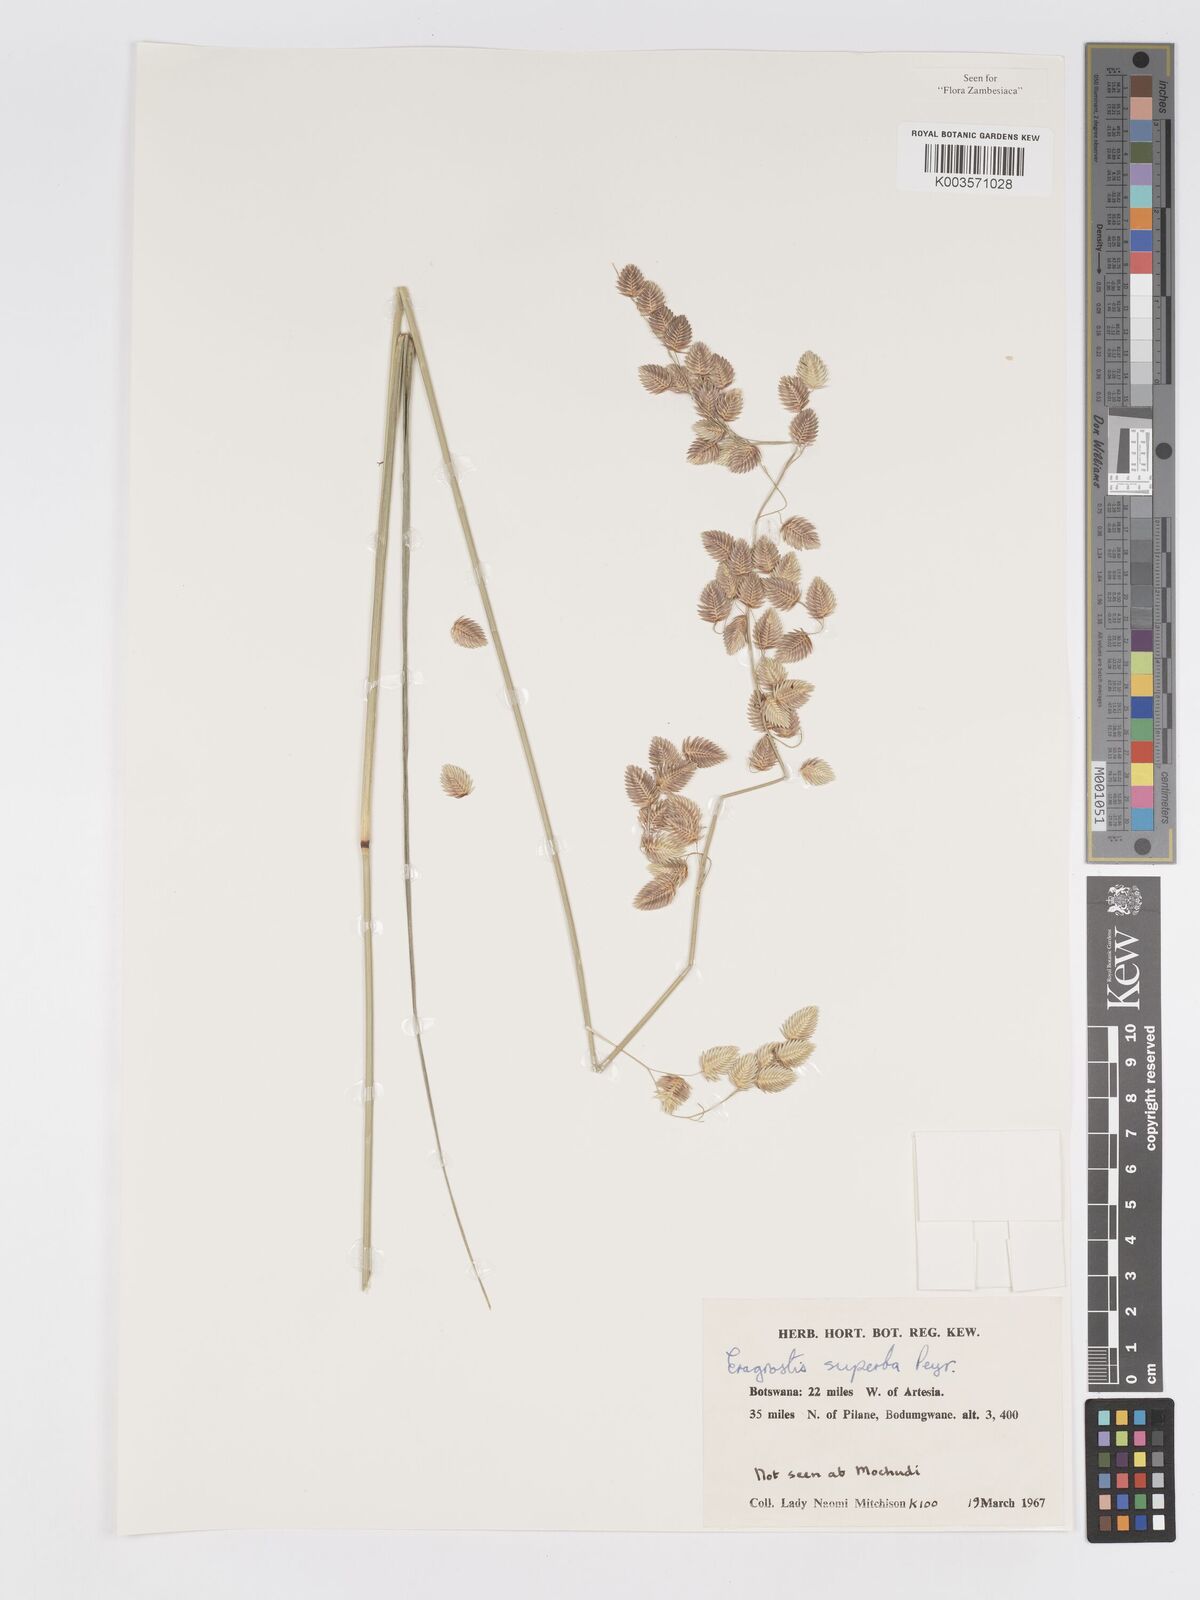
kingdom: Plantae
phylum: Tracheophyta
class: Liliopsida
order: Poales
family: Poaceae
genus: Eragrostis
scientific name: Eragrostis superba
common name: Wilman lovegrass
